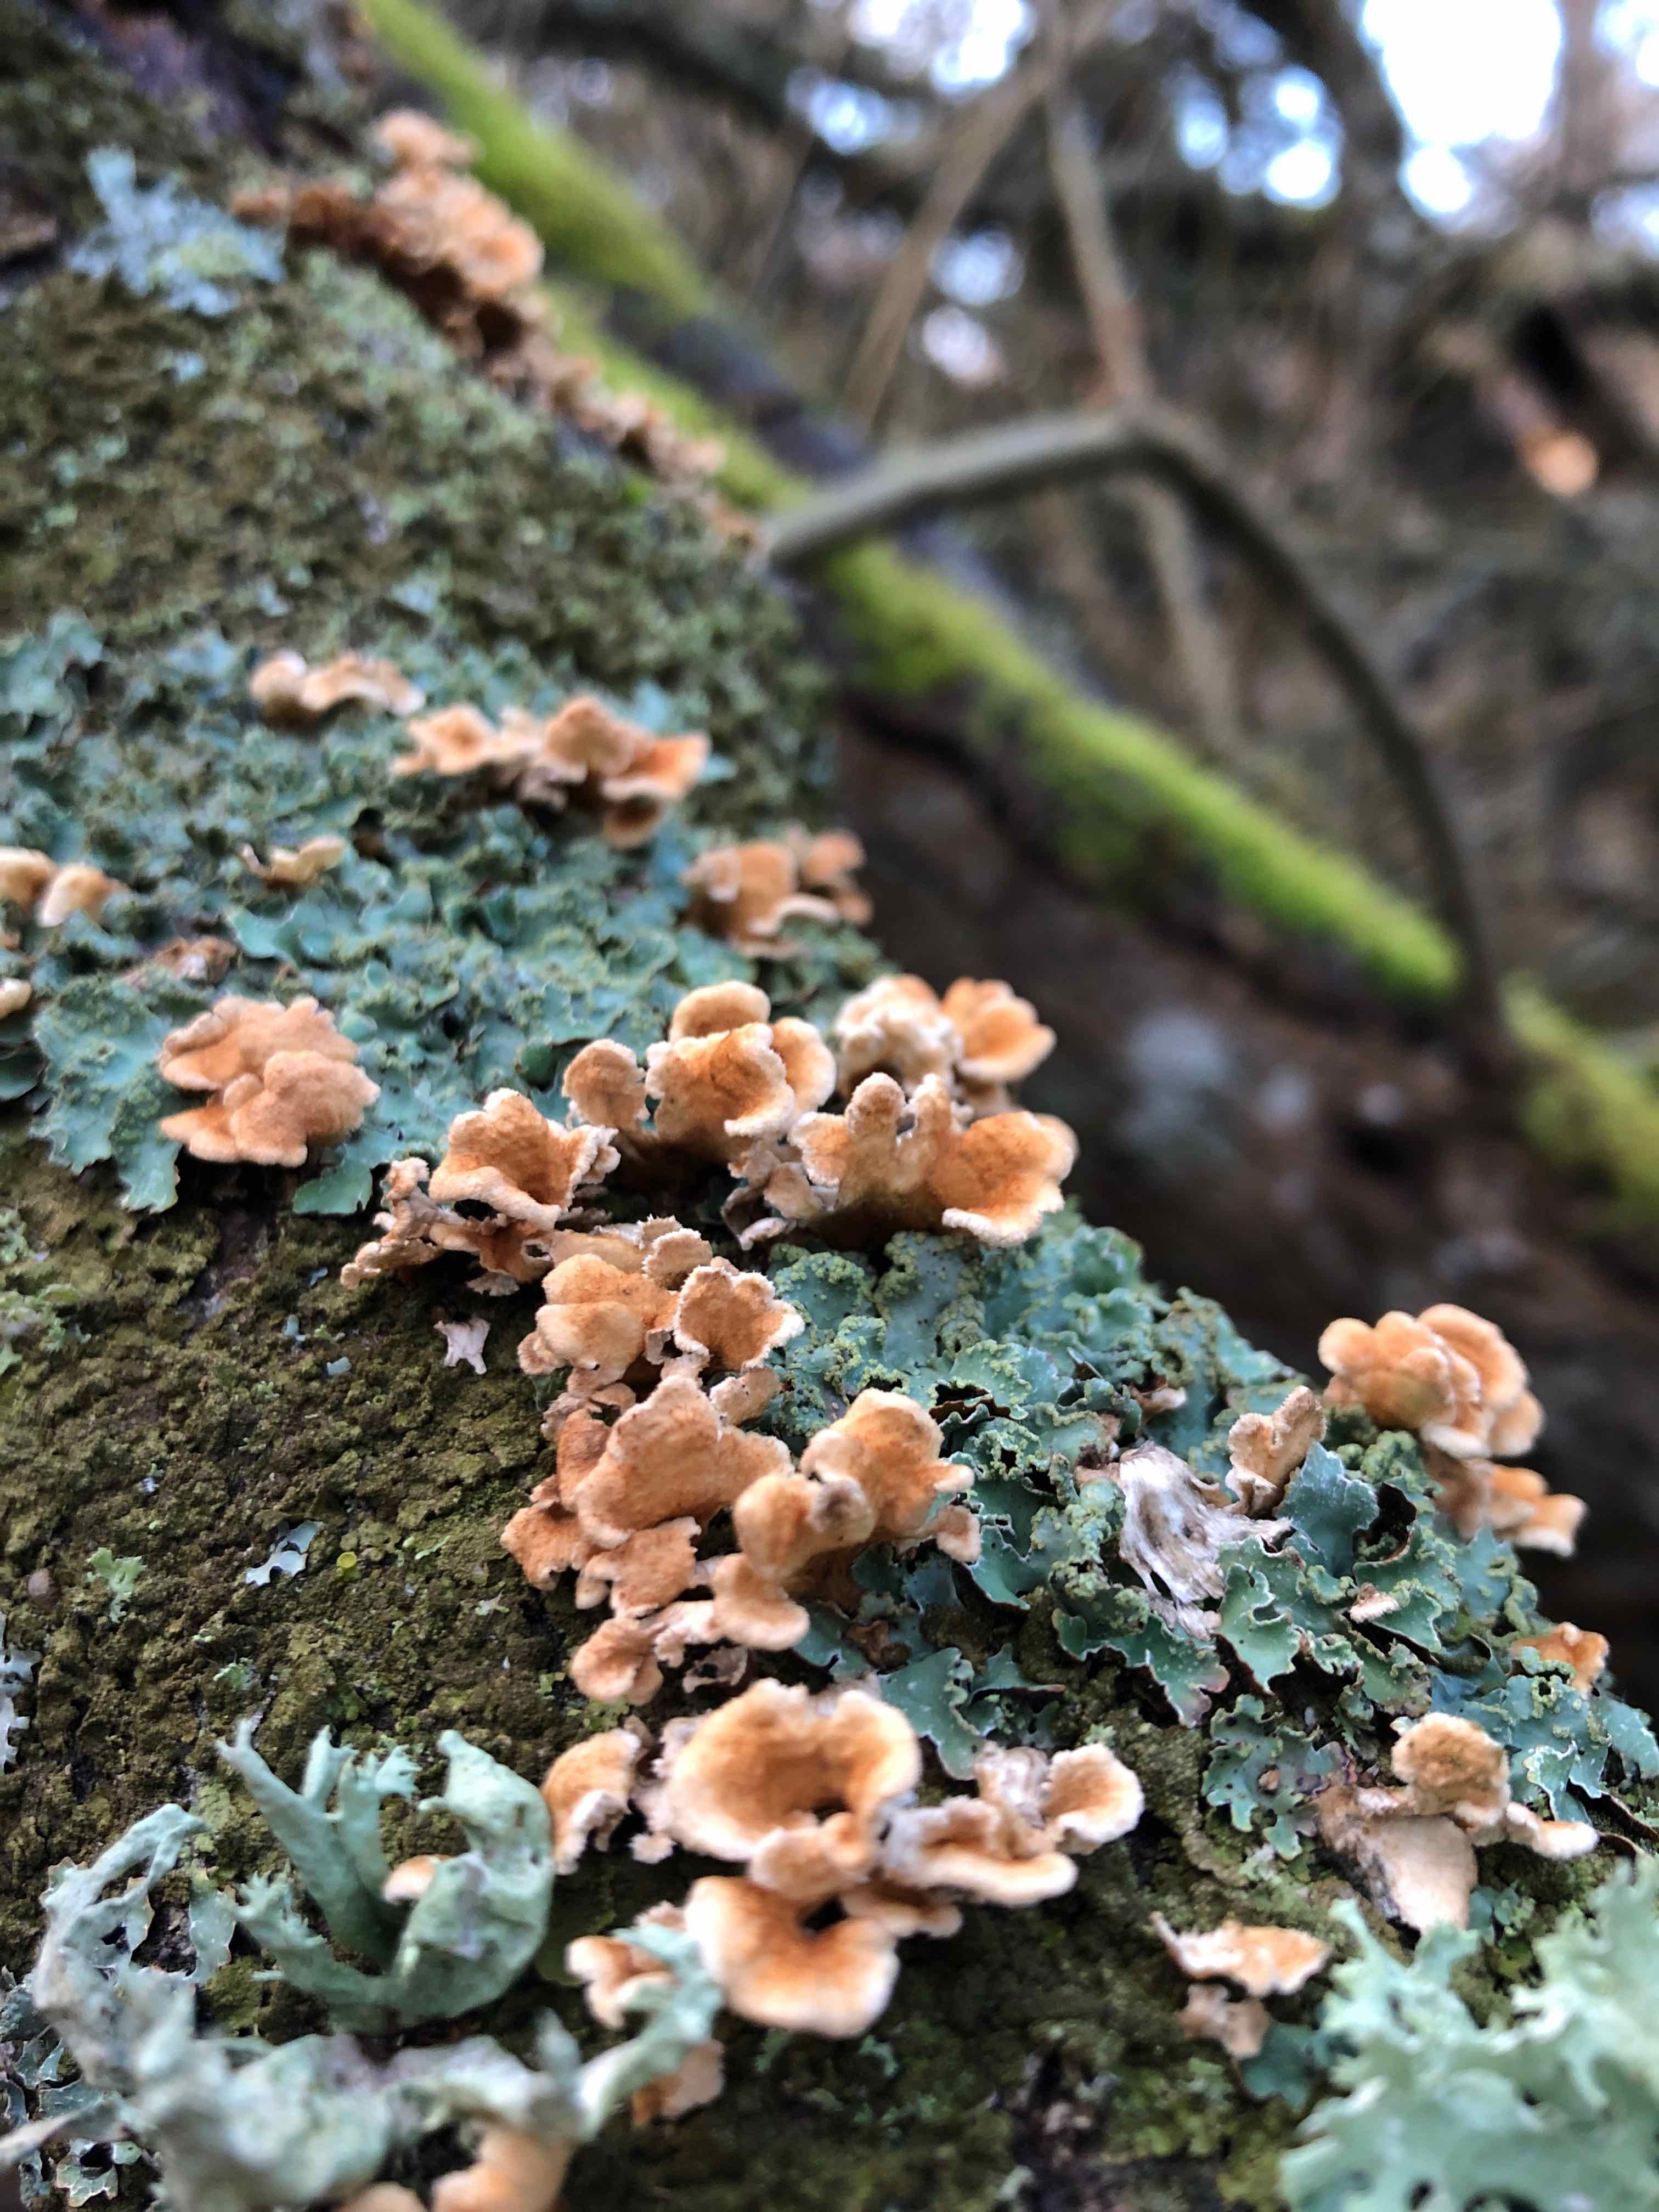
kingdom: Fungi
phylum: Basidiomycota
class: Agaricomycetes
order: Amylocorticiales
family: Amylocorticiaceae
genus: Plicaturopsis
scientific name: Plicaturopsis crispa
